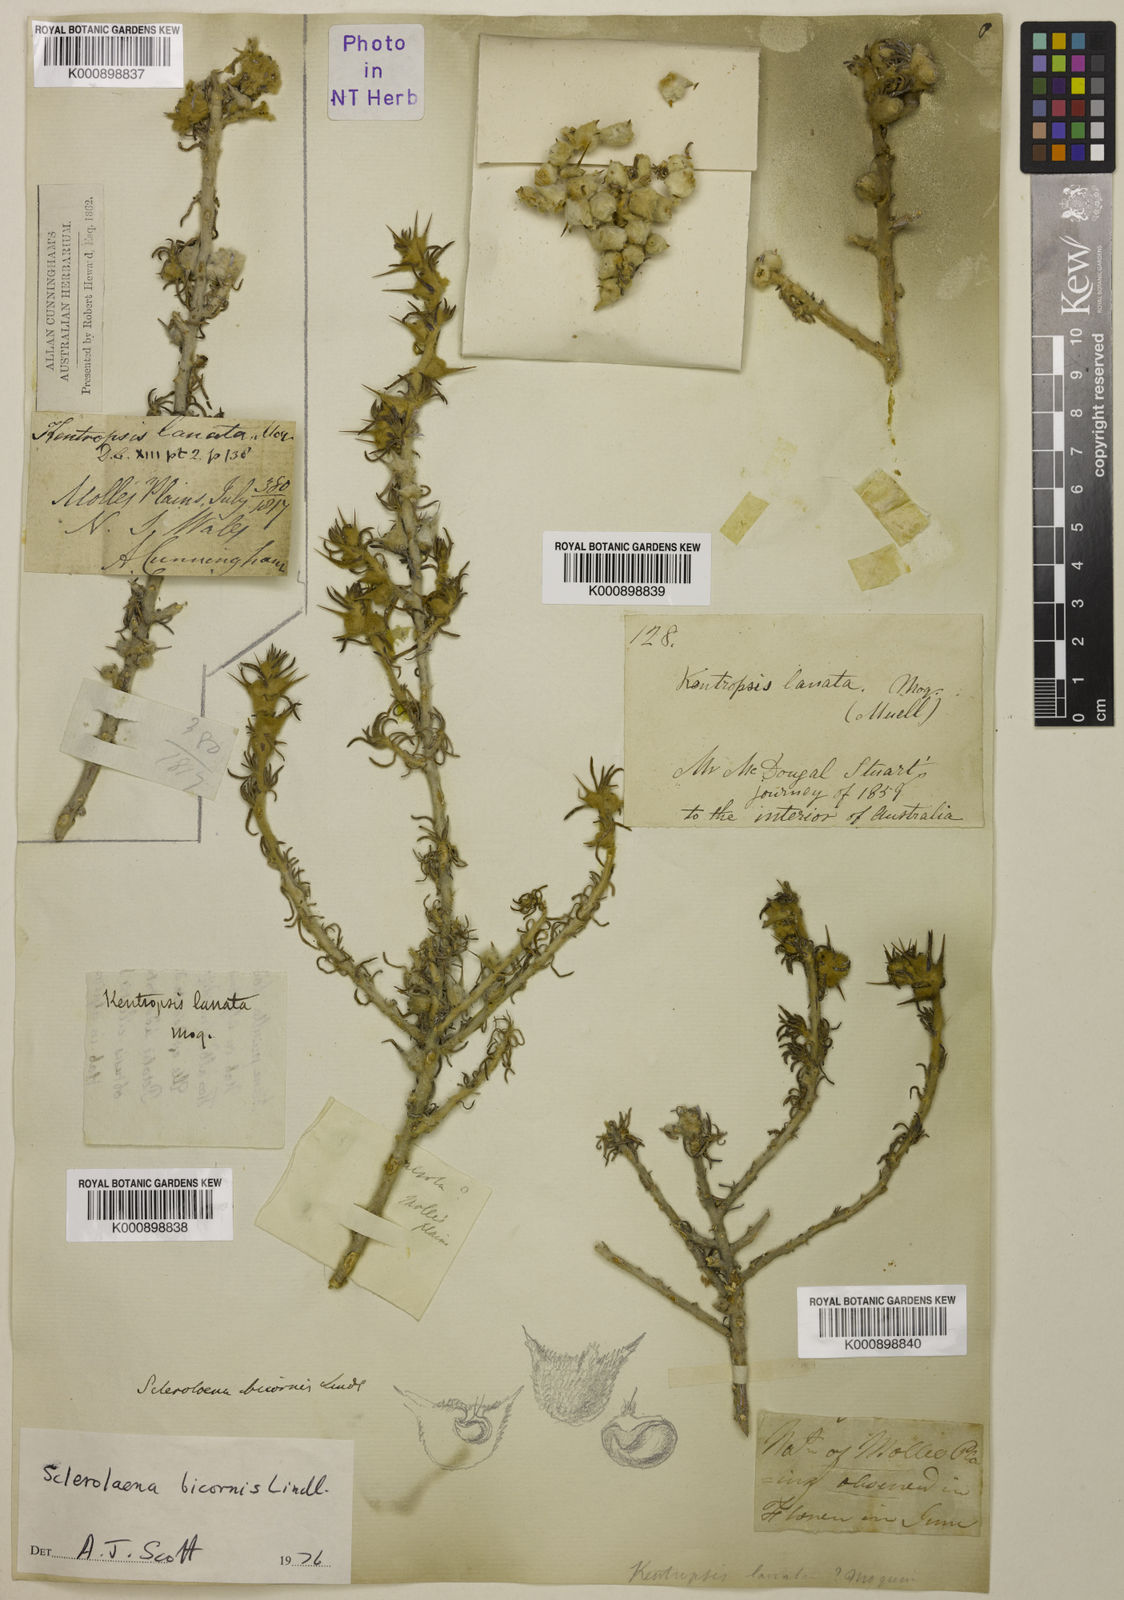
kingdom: Plantae
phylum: Tracheophyta
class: Magnoliopsida
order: Caryophyllales
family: Amaranthaceae
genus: Sclerolaena
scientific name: Sclerolaena bicornis
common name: Goatheadbur
